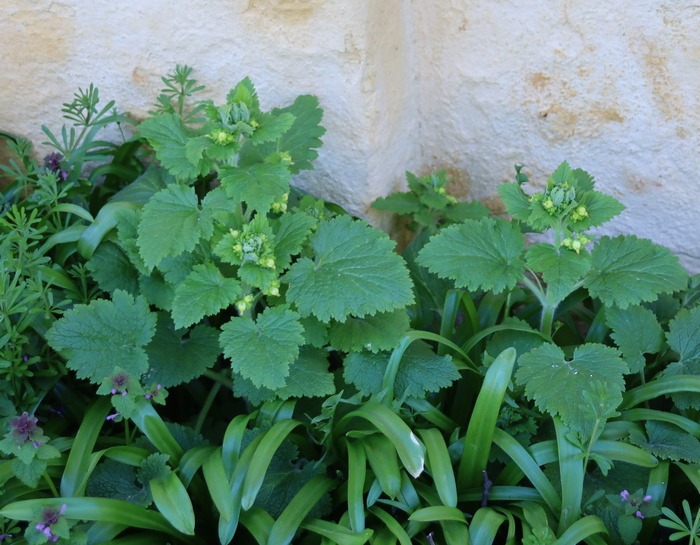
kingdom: Plantae
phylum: Tracheophyta
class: Magnoliopsida
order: Lamiales
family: Scrophulariaceae
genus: Scrophularia
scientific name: Scrophularia vernalis
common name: Vår-brunrod
